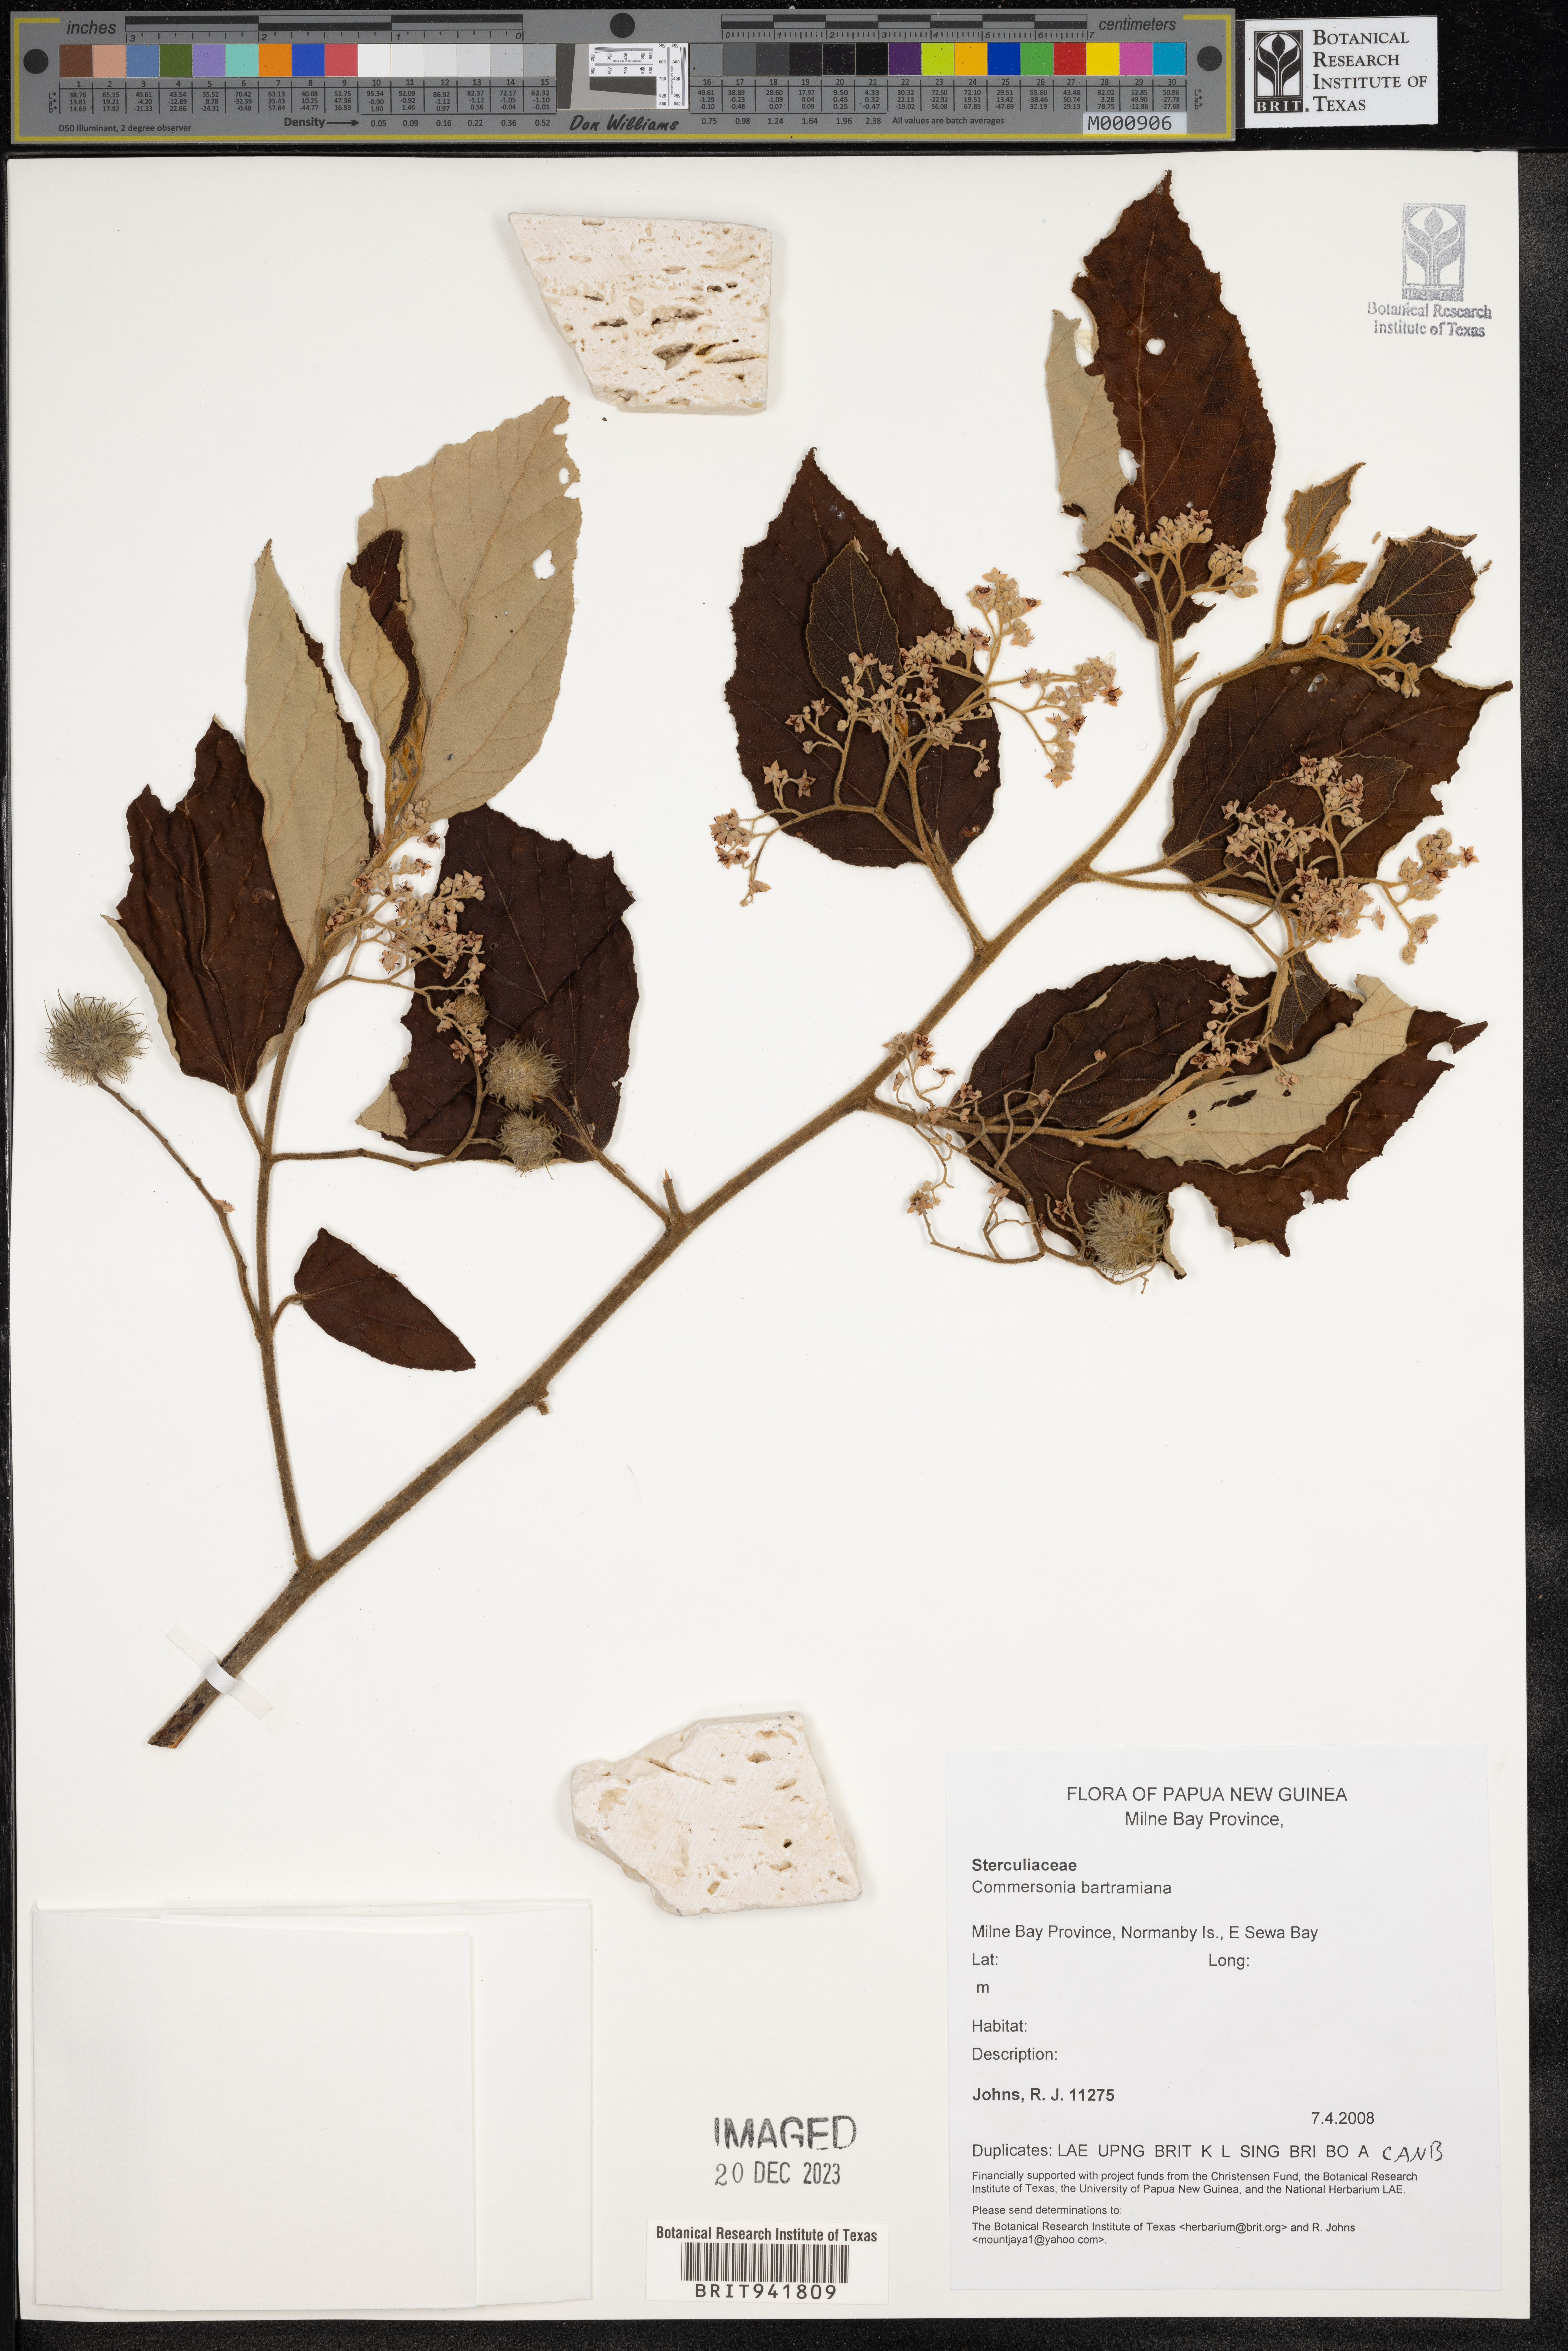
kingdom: Plantae
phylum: Tracheophyta
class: Magnoliopsida
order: Malvales
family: Malvaceae
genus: Commersonia
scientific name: Commersonia bartramia
